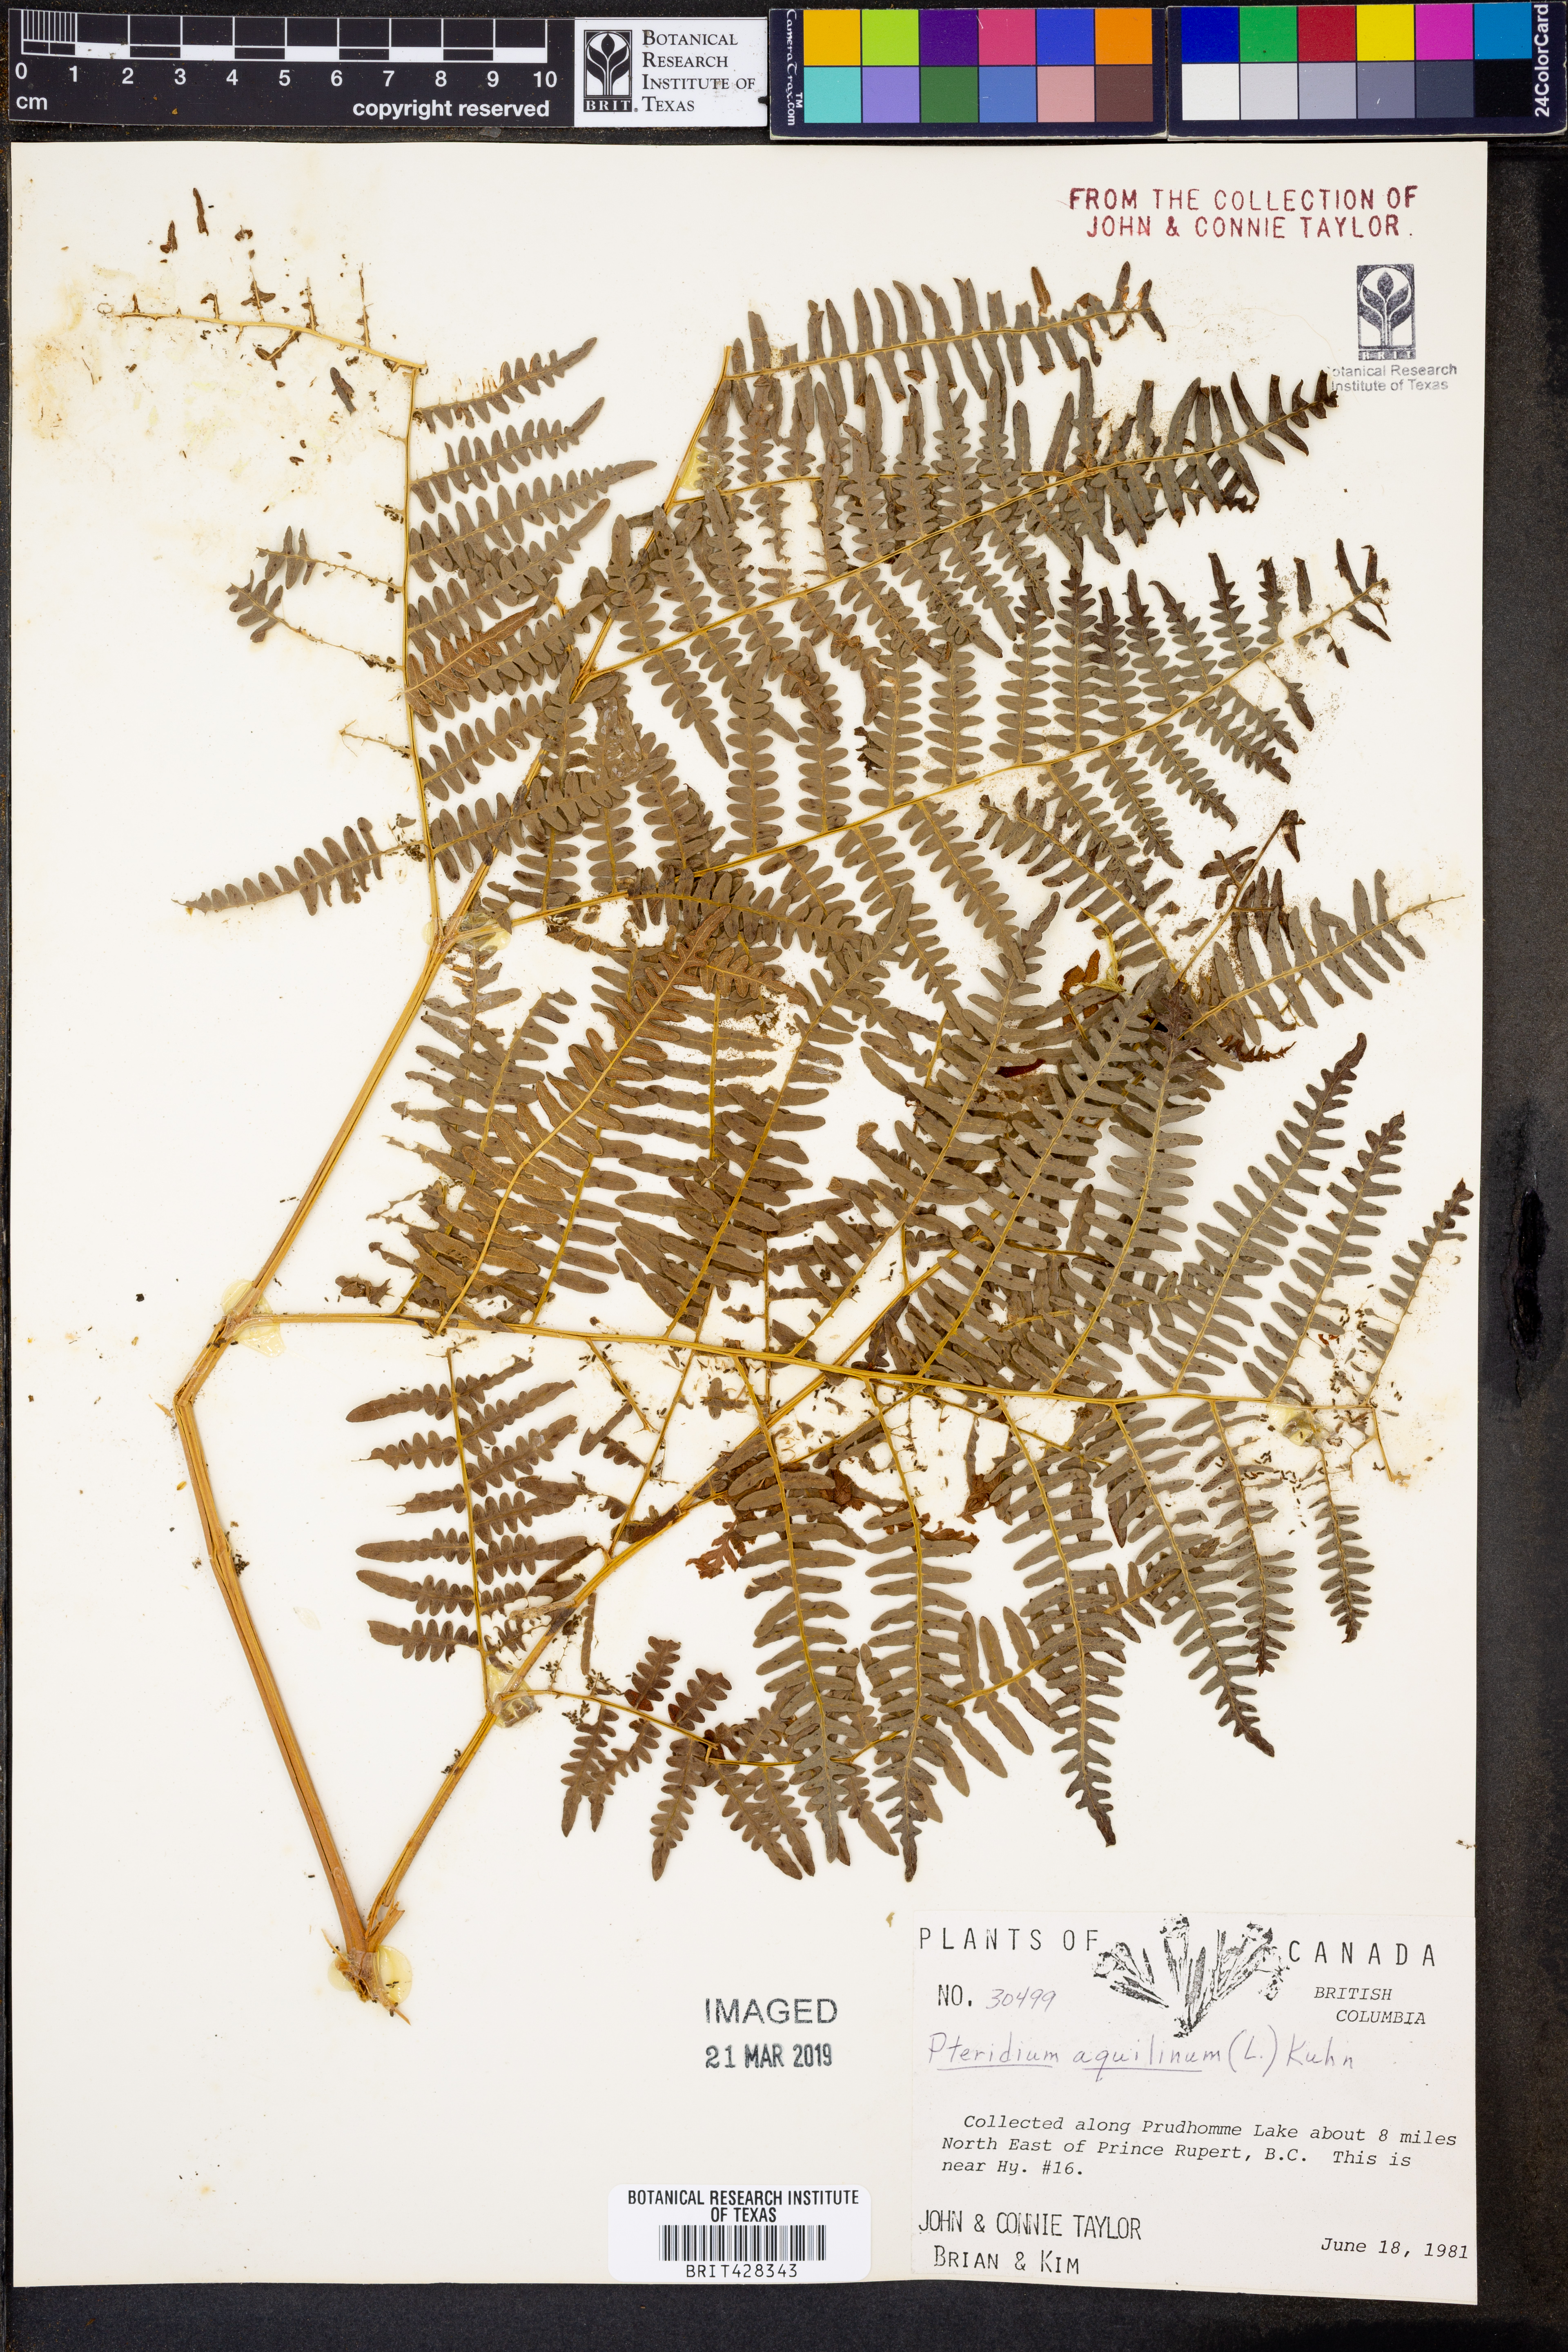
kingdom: Plantae
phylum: Tracheophyta
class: Polypodiopsida
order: Polypodiales
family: Dennstaedtiaceae
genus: Pteridium
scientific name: Pteridium aquilinum
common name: Bracken
